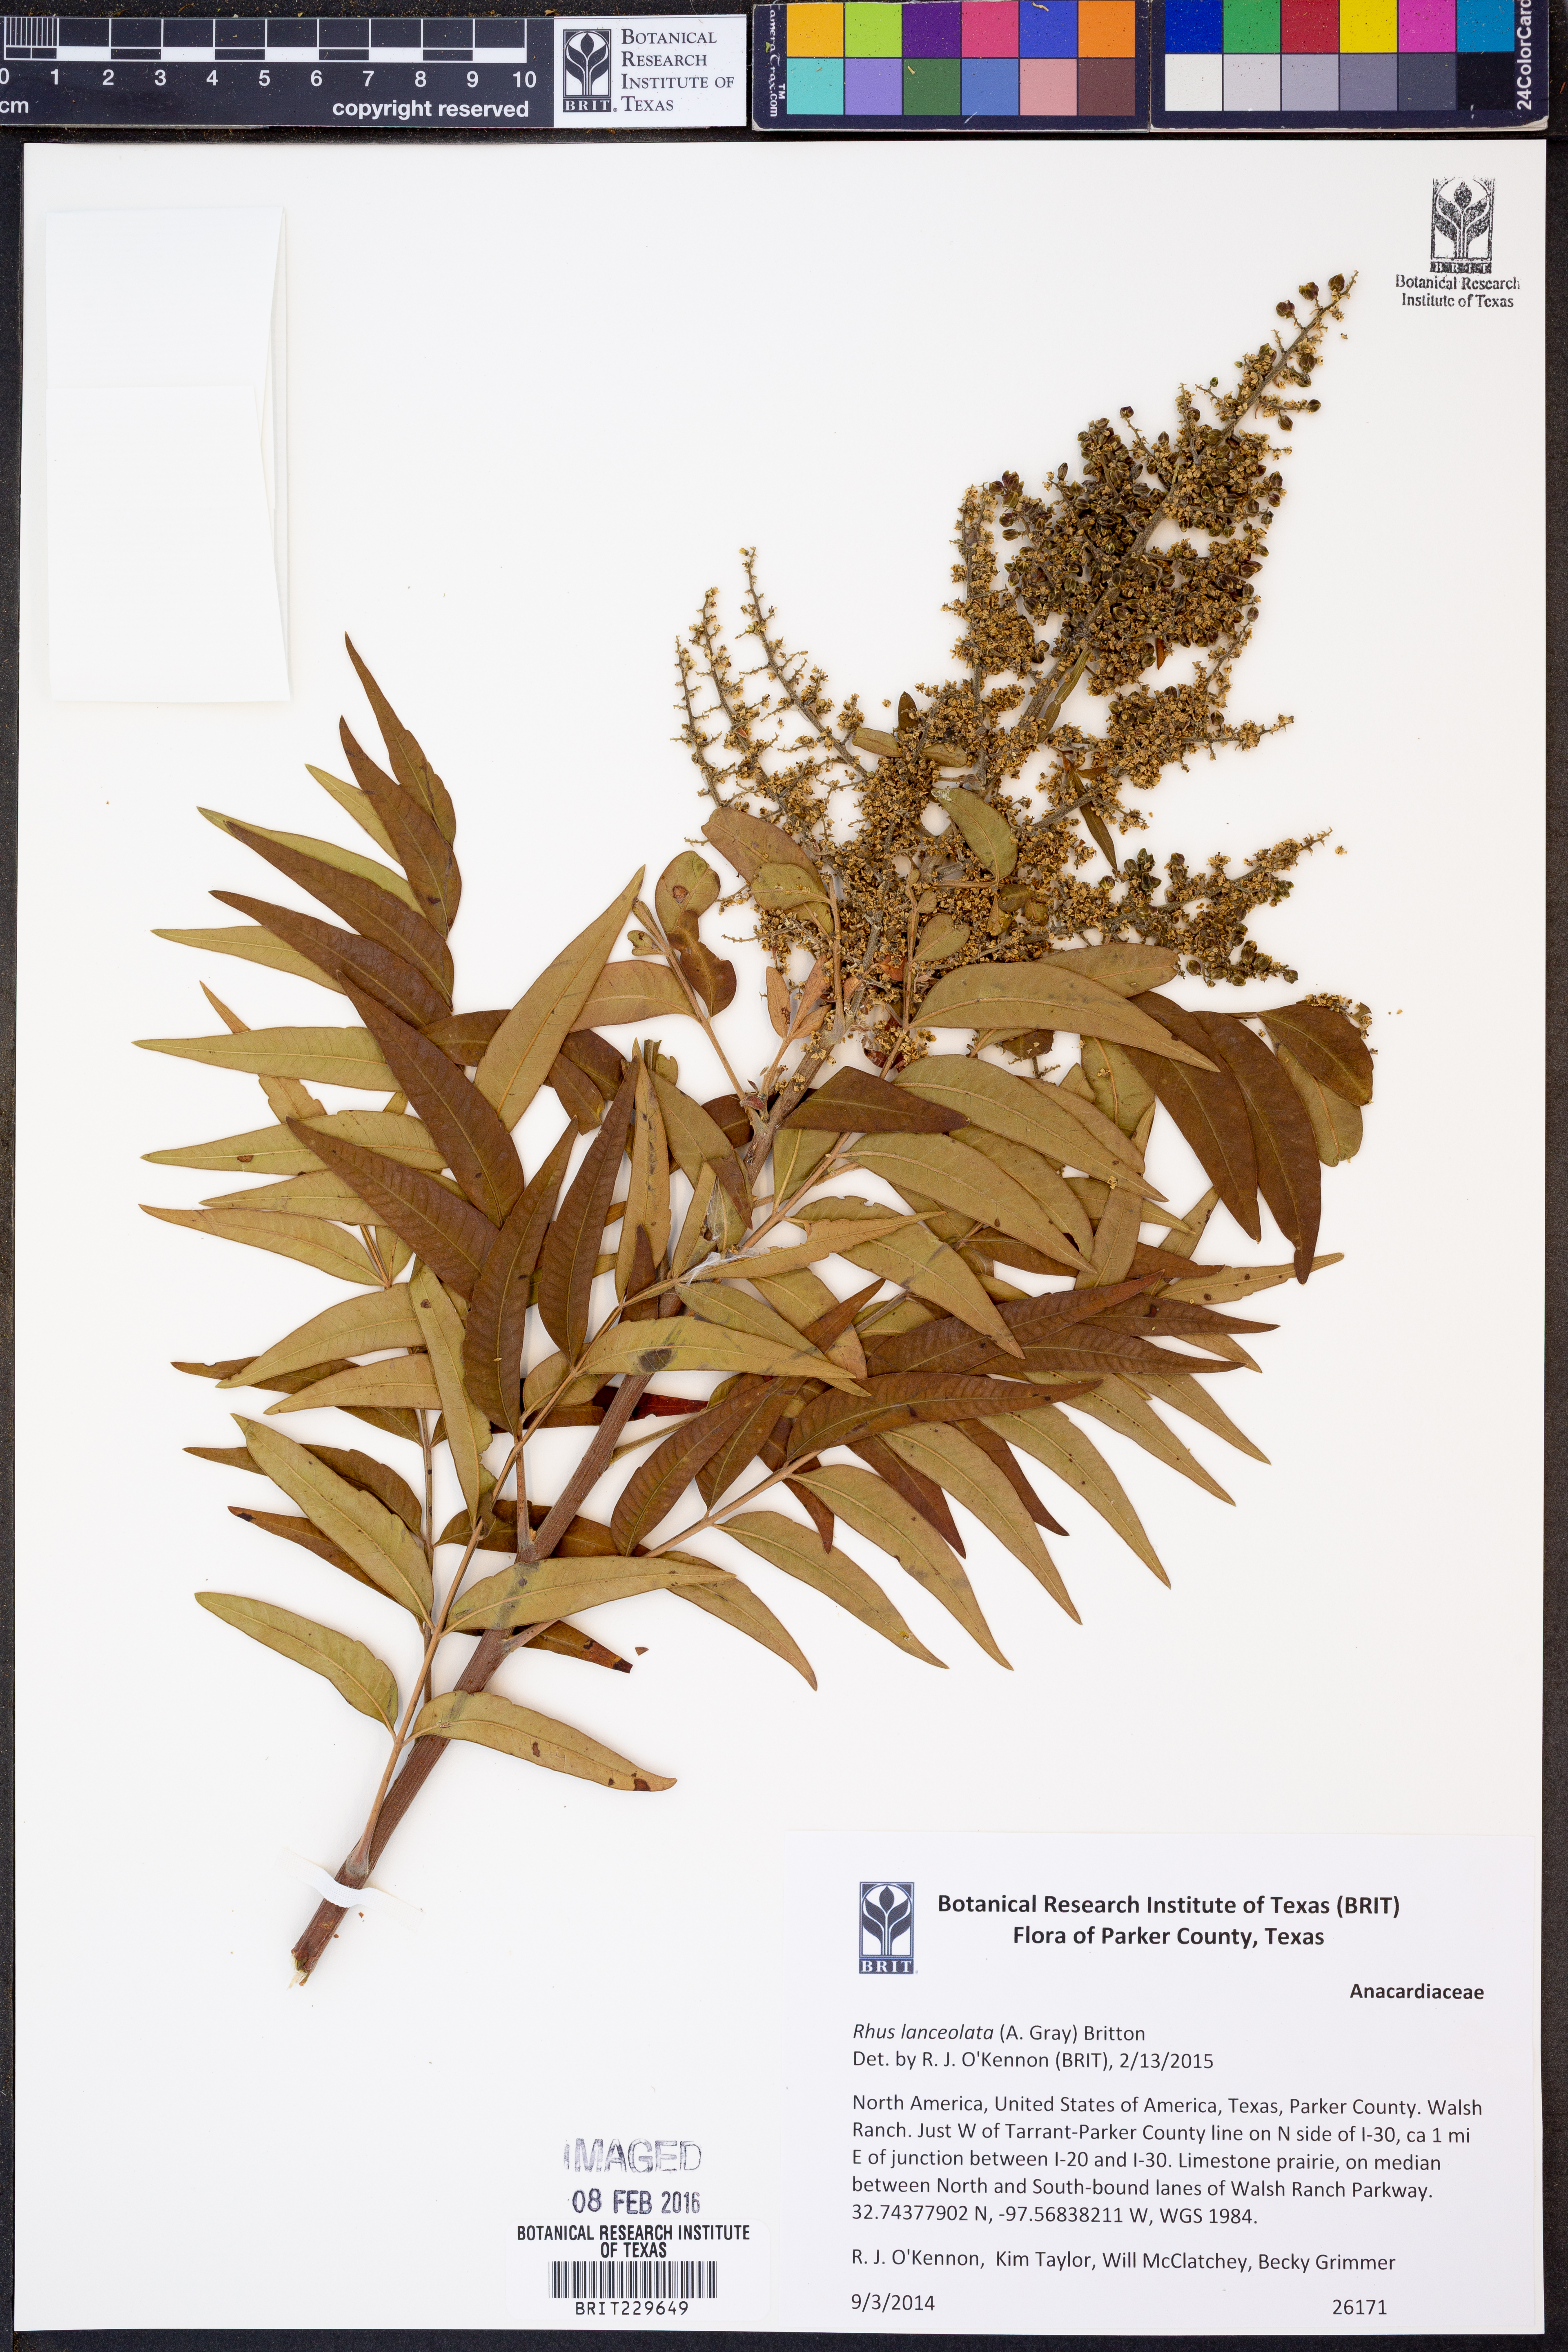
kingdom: Plantae
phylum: Tracheophyta
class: Magnoliopsida
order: Sapindales
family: Anacardiaceae
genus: Rhus
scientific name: Rhus lanceolata
